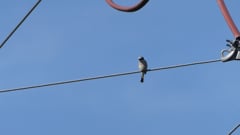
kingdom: Animalia
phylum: Chordata
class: Aves
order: Passeriformes
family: Laniidae
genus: Lanius
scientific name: Lanius collurio
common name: Red-backed shrike
